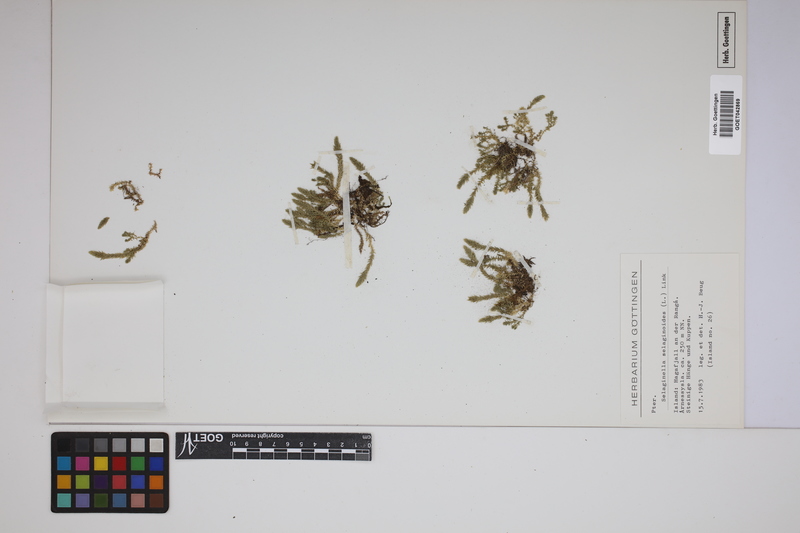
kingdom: Plantae
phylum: Tracheophyta
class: Lycopodiopsida
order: Selaginellales
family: Selaginellaceae
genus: Selaginella
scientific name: Selaginella selaginoides
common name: Prickly mountain-moss
